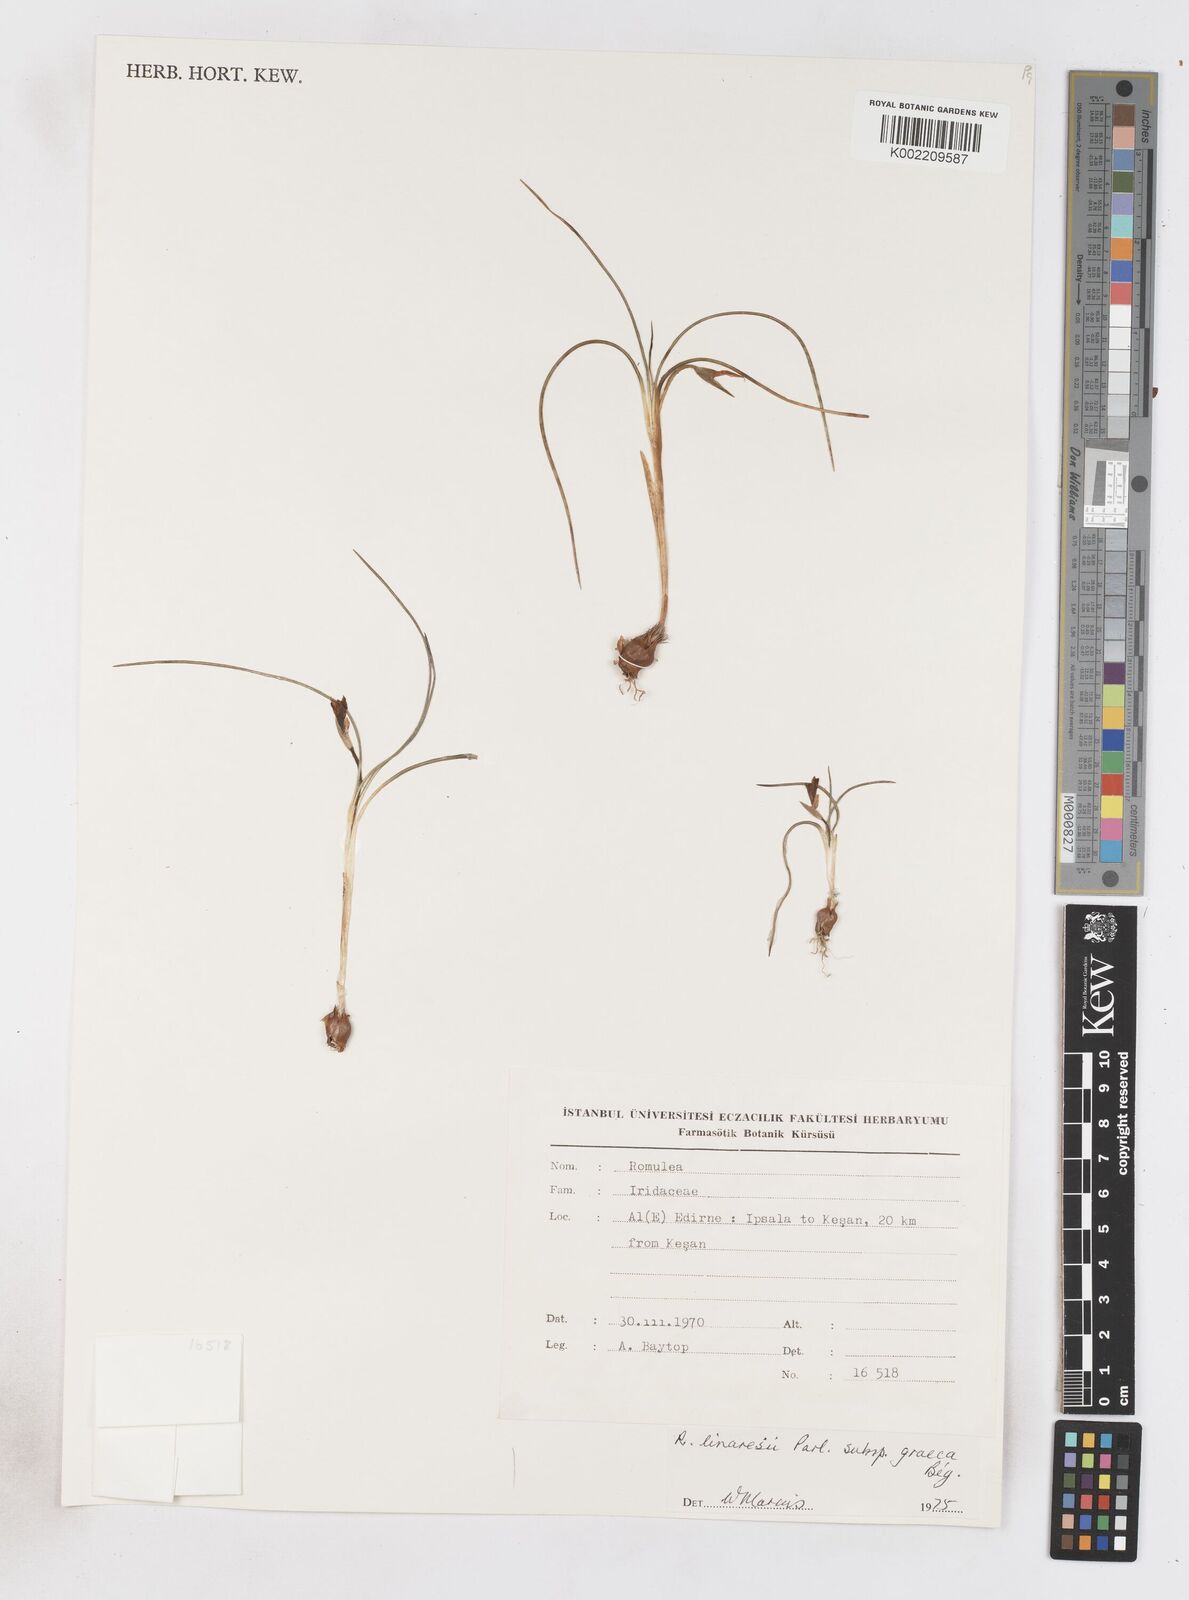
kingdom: Plantae
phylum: Tracheophyta
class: Liliopsida
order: Asparagales
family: Iridaceae
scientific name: Iridaceae
